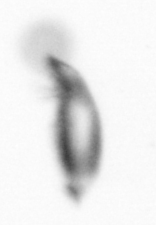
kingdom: Animalia
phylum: Arthropoda
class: Copepoda
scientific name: Copepoda
